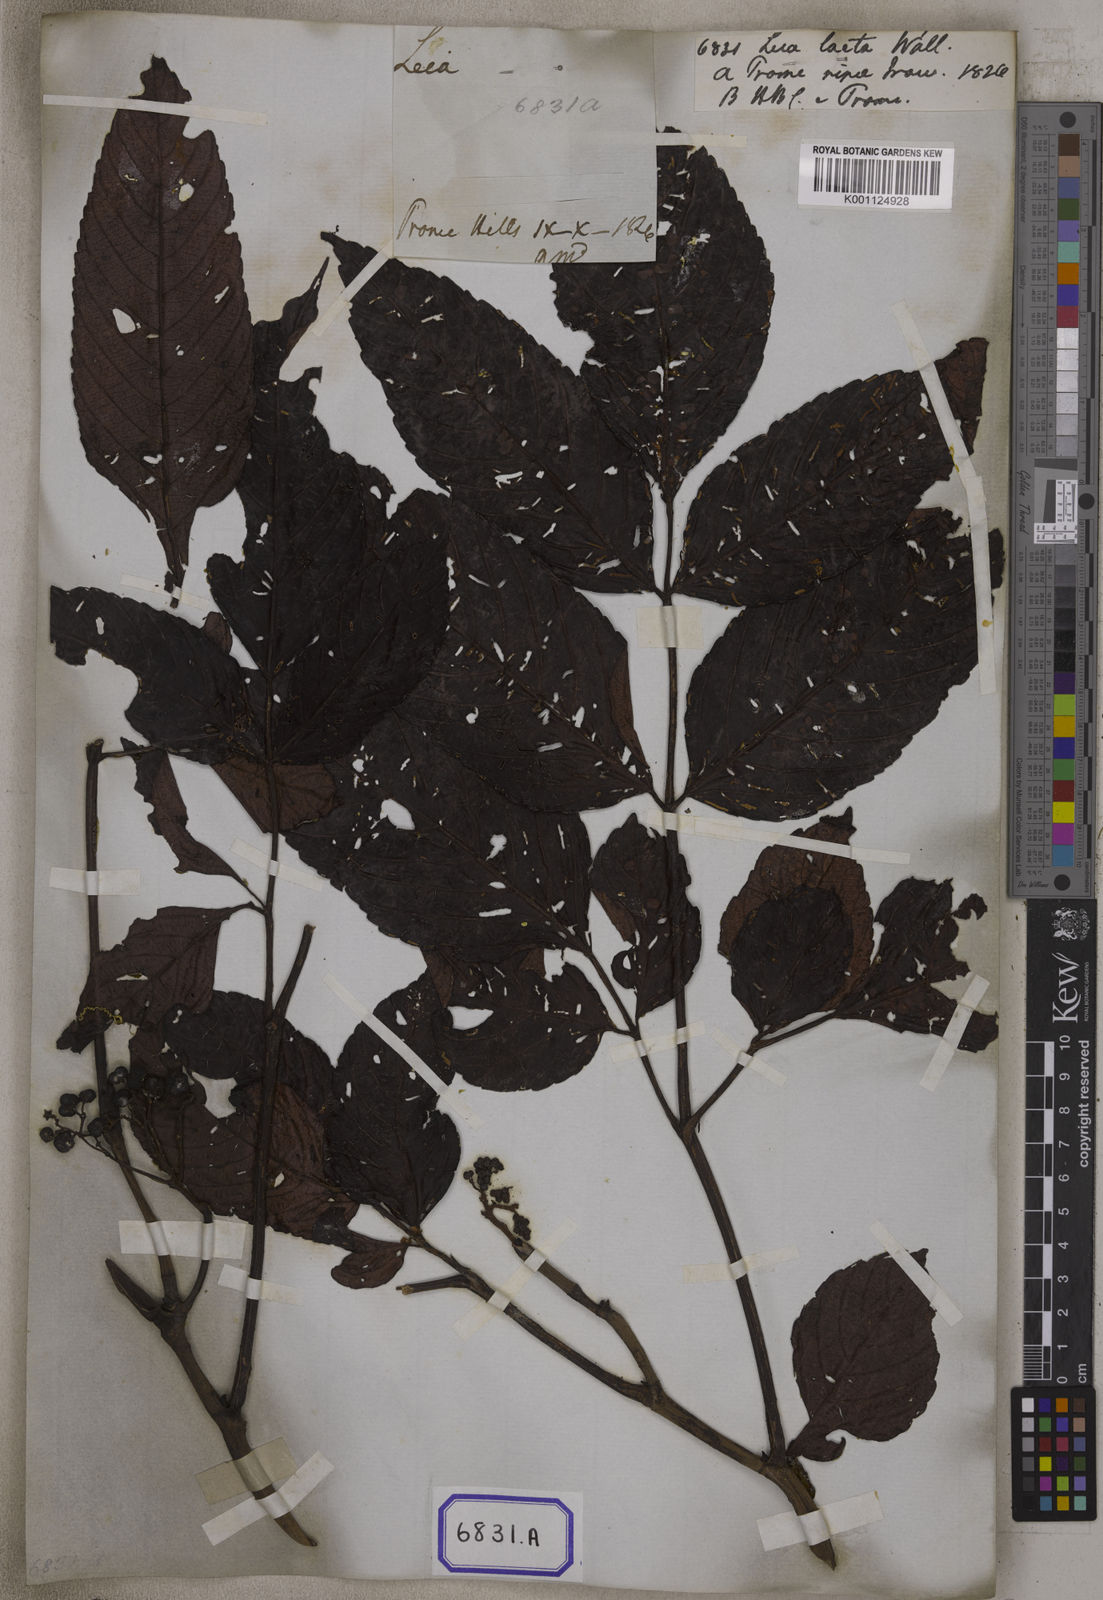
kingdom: Plantae
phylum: Tracheophyta
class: Magnoliopsida
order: Vitales
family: Vitaceae
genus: Leea
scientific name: Leea guineensis
